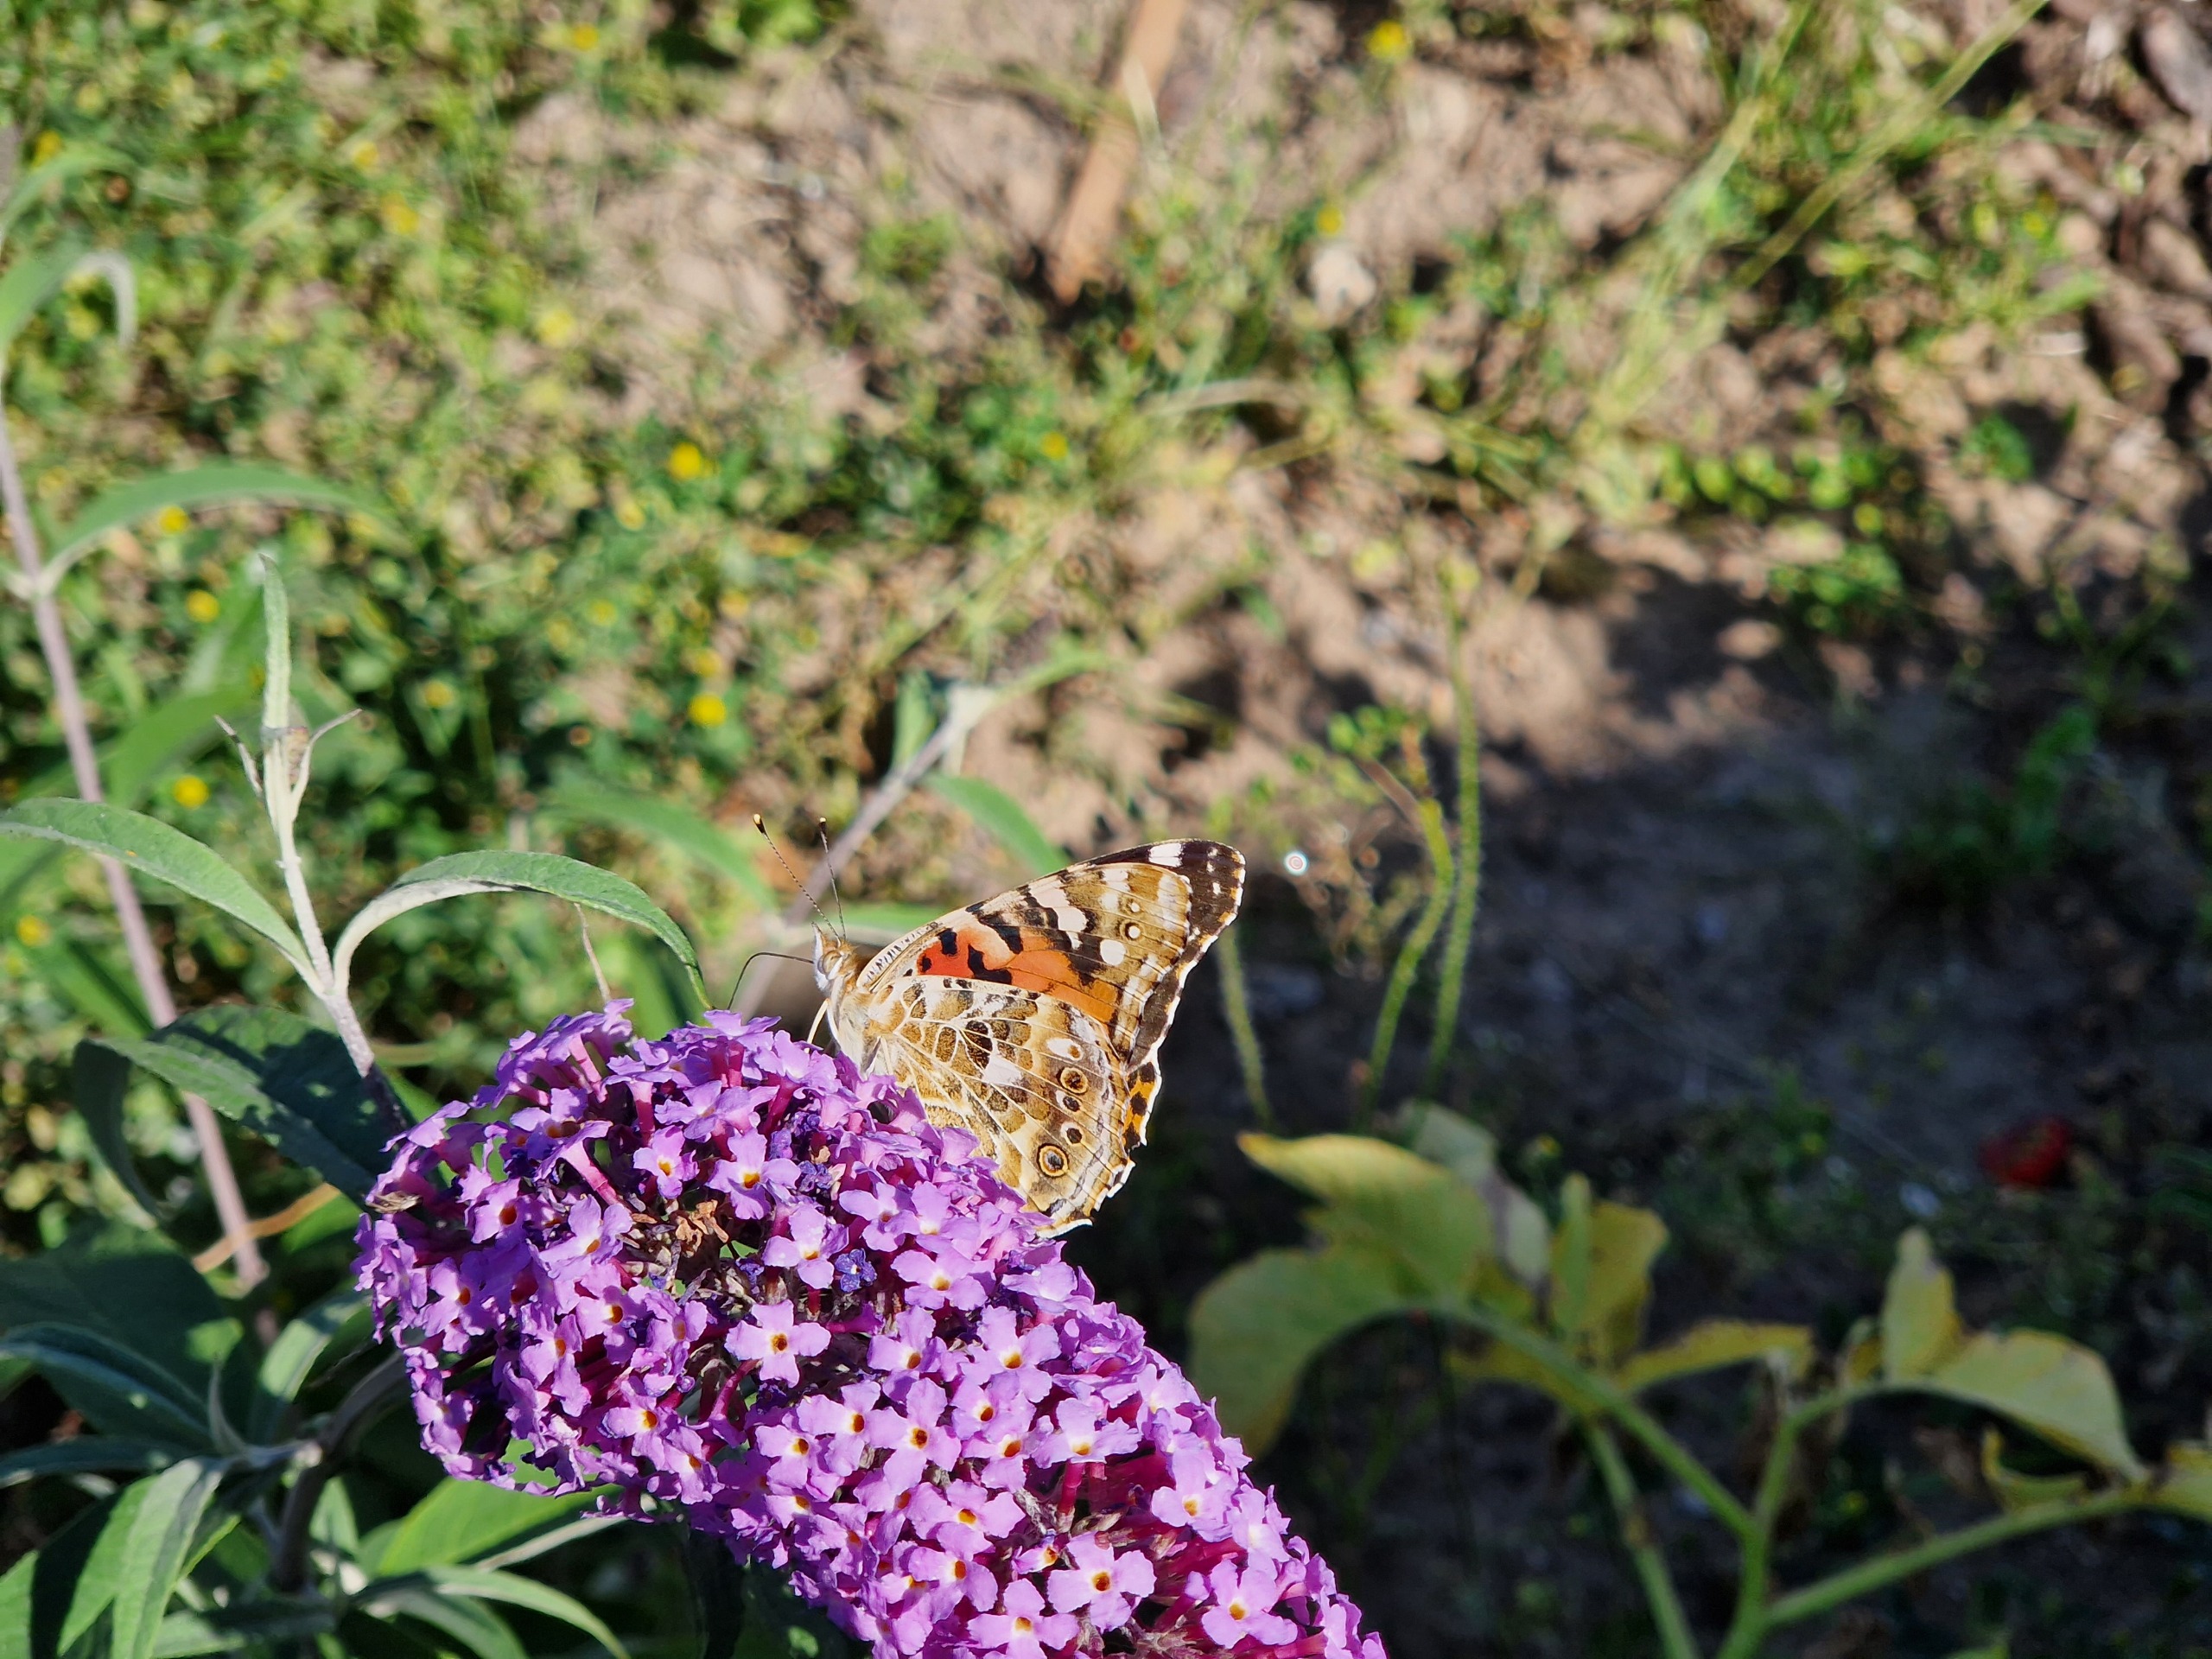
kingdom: Animalia
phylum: Arthropoda
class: Insecta
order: Lepidoptera
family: Nymphalidae
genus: Vanessa
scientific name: Vanessa cardui
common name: Tidselsommerfugl
